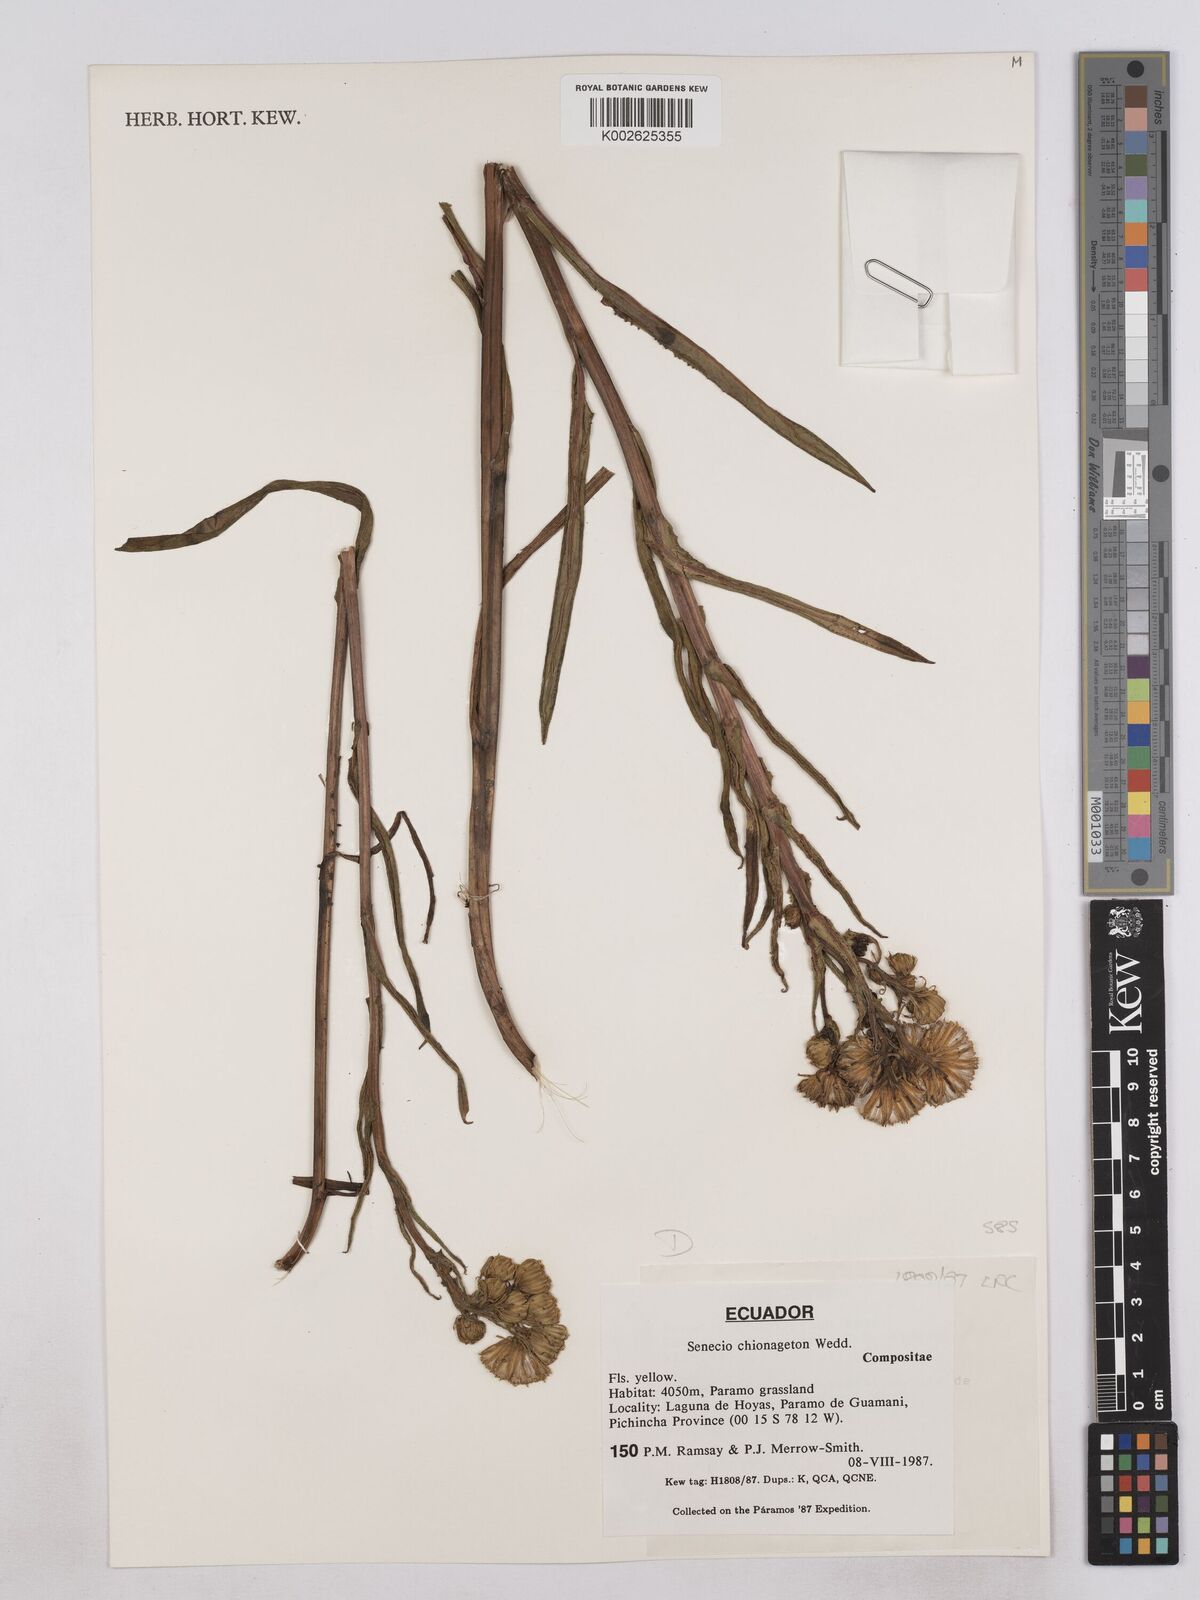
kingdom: Plantae
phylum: Tracheophyta
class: Magnoliopsida
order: Asterales
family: Asteraceae
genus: Senecio
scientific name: Senecio chionogeton
